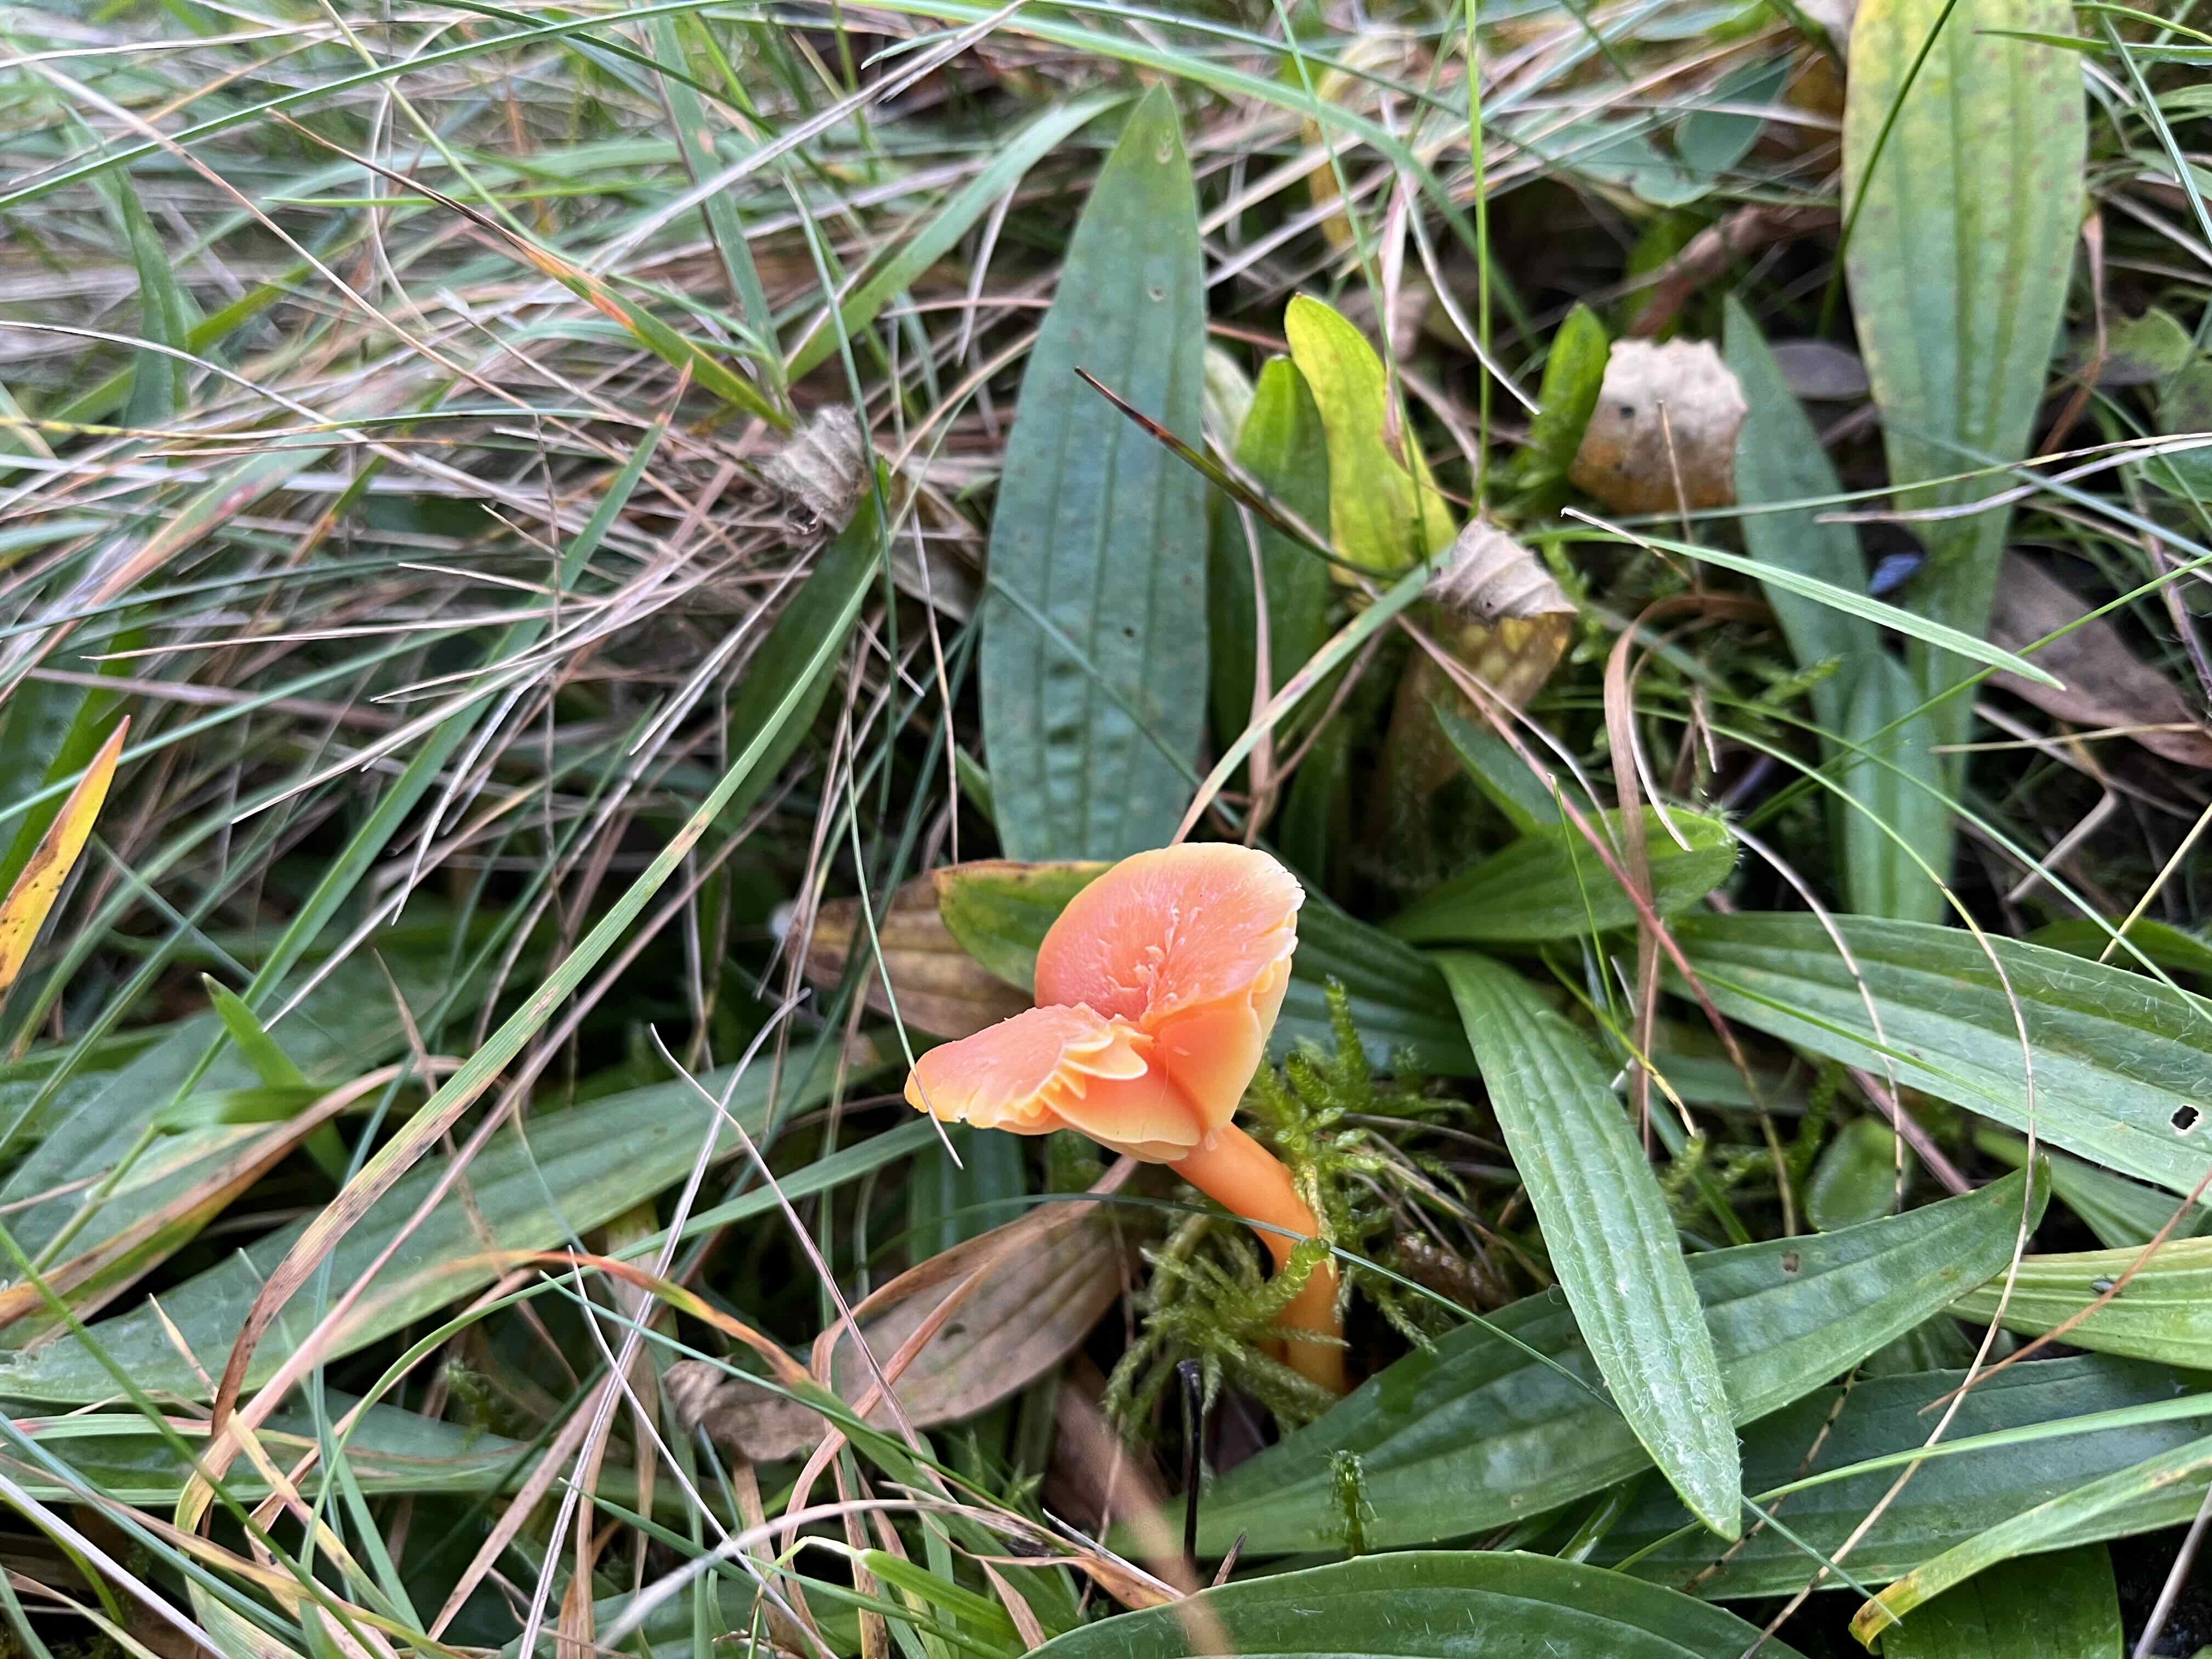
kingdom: Fungi
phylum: Basidiomycota
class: Agaricomycetes
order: Agaricales
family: Hygrophoraceae
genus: Hygrocybe
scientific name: Hygrocybe reidii
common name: honning-vokshat
